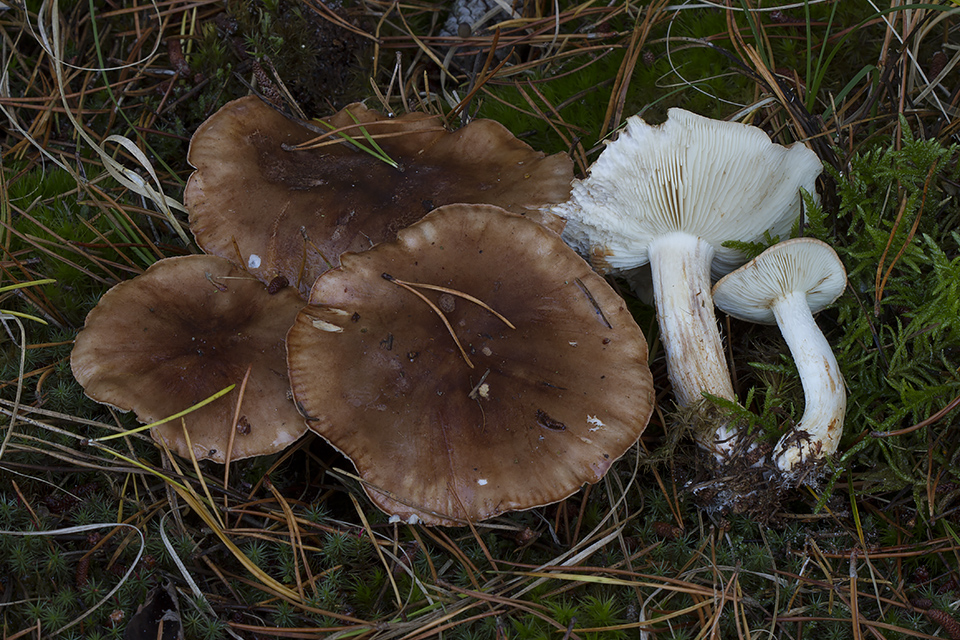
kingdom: Fungi
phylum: Basidiomycota
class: Agaricomycetes
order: Agaricales
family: Tricholomataceae
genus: Tricholoma
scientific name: Tricholoma stans
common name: stolt ridderhat
